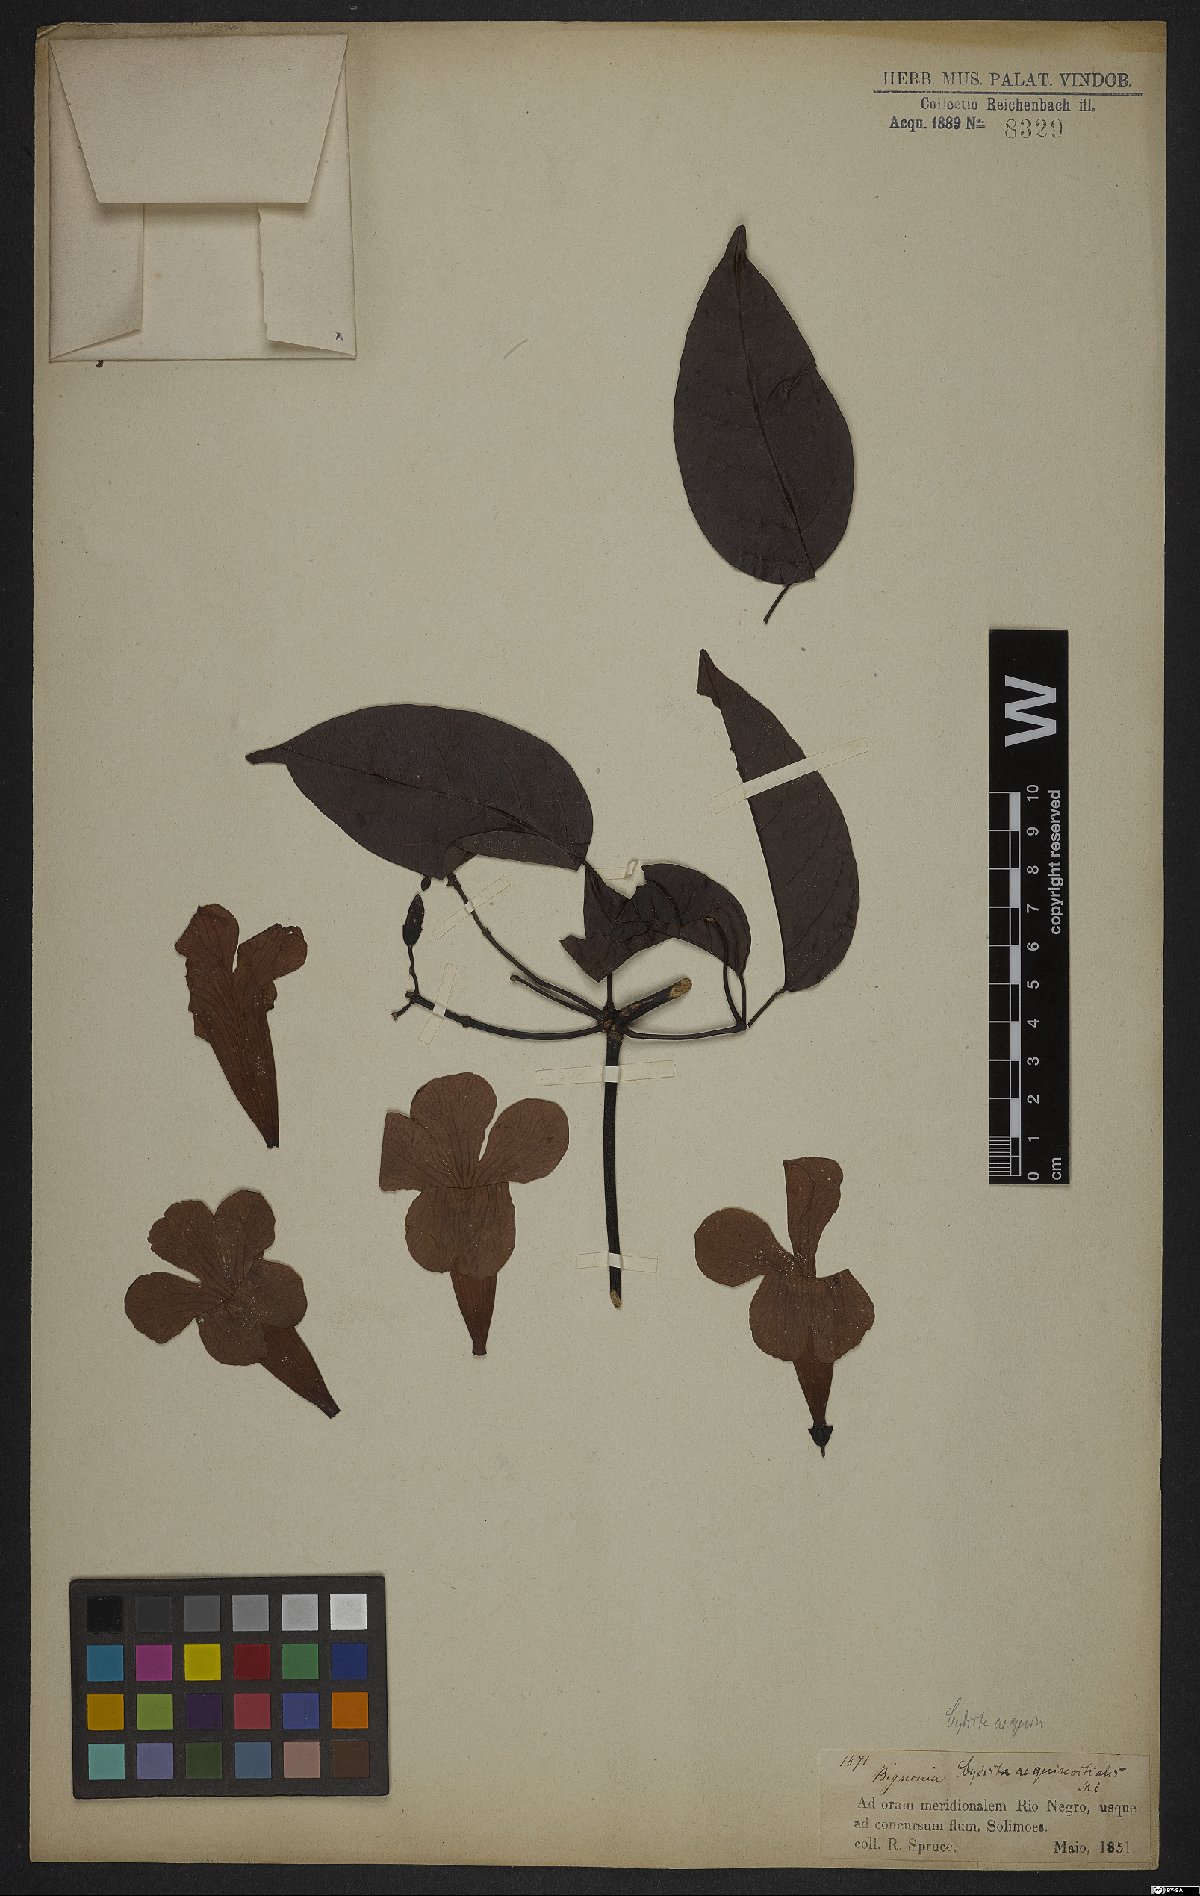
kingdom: Plantae
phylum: Tracheophyta
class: Magnoliopsida
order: Lamiales
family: Bignoniaceae
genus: Bignonia
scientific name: Bignonia aequinoctialis
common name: Garlicvine
